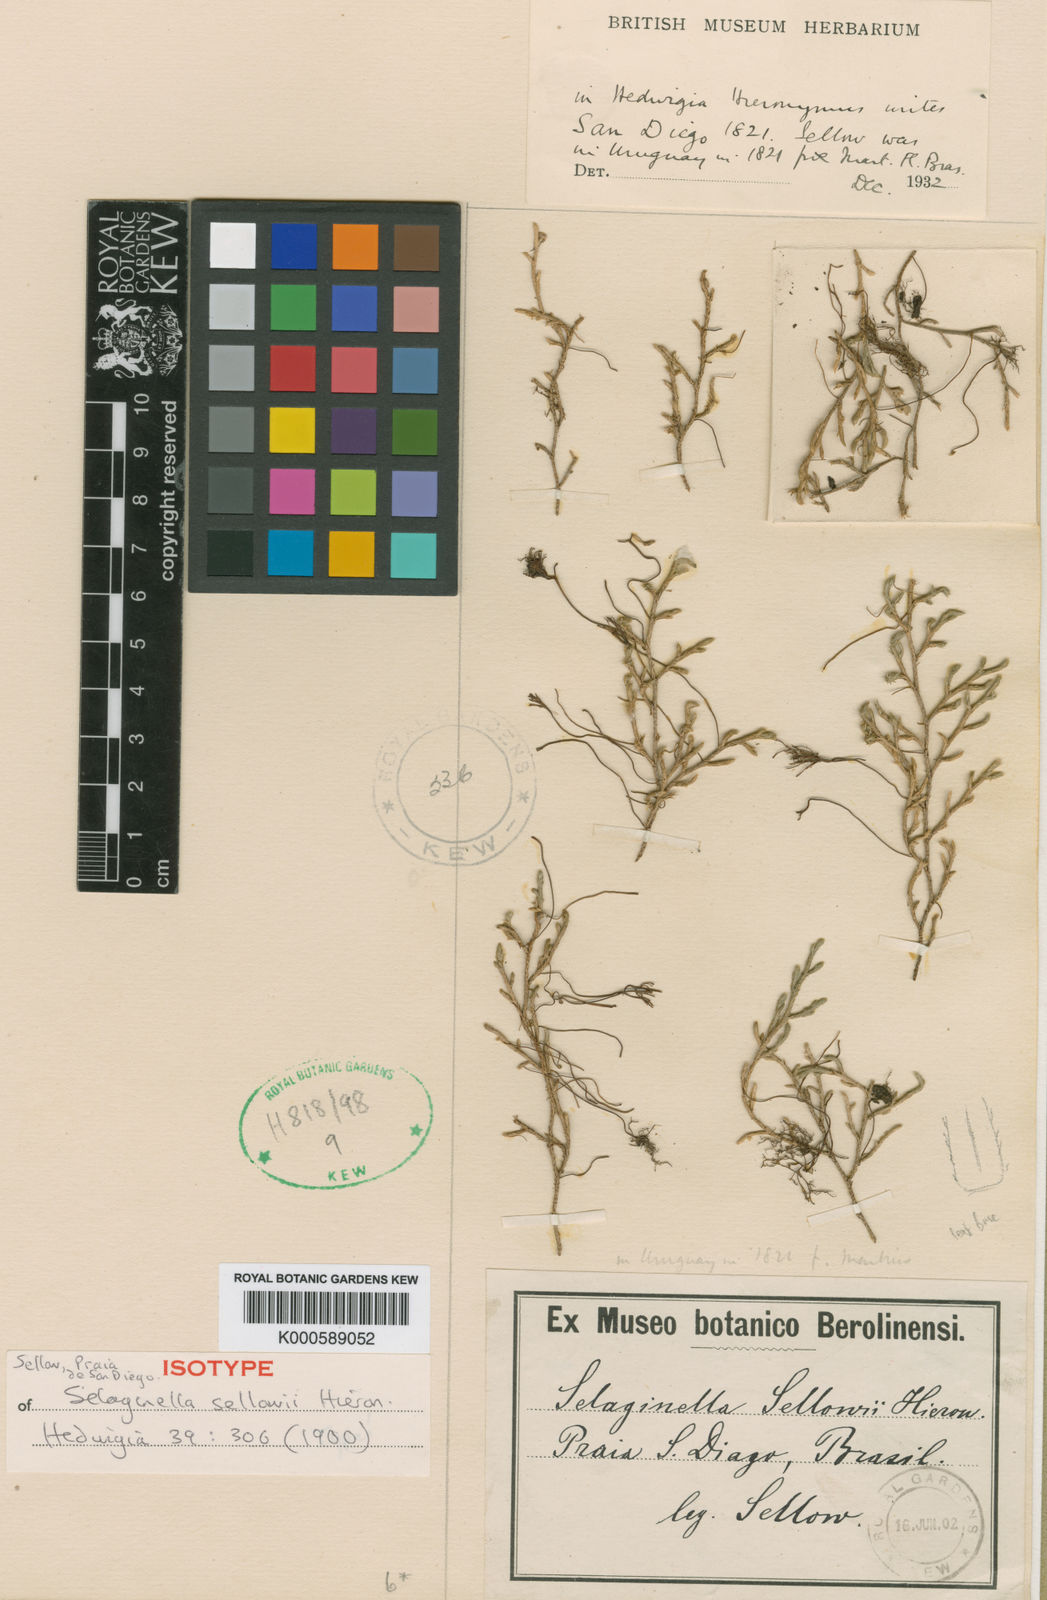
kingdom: Plantae
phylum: Tracheophyta
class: Lycopodiopsida
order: Selaginellales
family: Selaginellaceae
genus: Selaginella
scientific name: Selaginella sellowii
